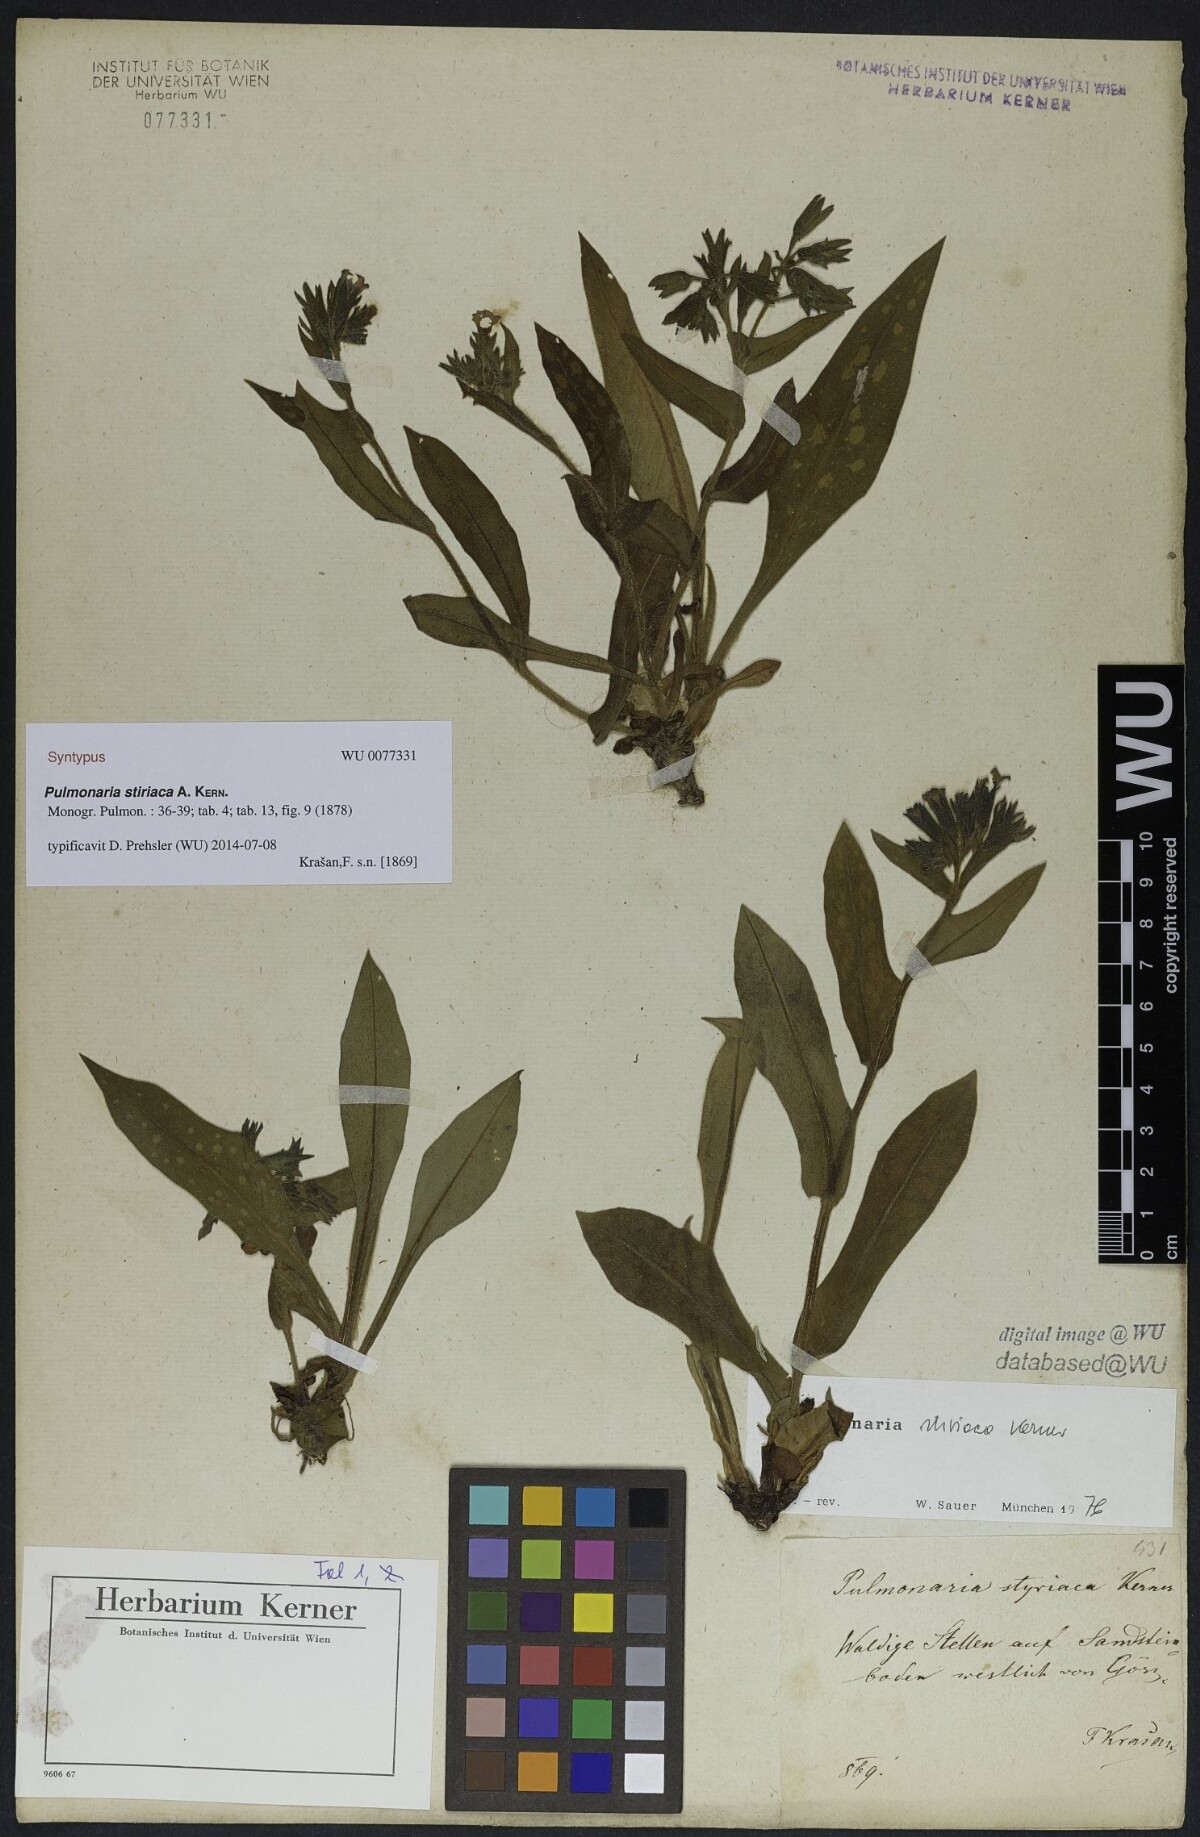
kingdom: Plantae
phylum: Tracheophyta
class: Magnoliopsida
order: Boraginales
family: Boraginaceae
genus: Pulmonaria
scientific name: Pulmonaria stiriaca
